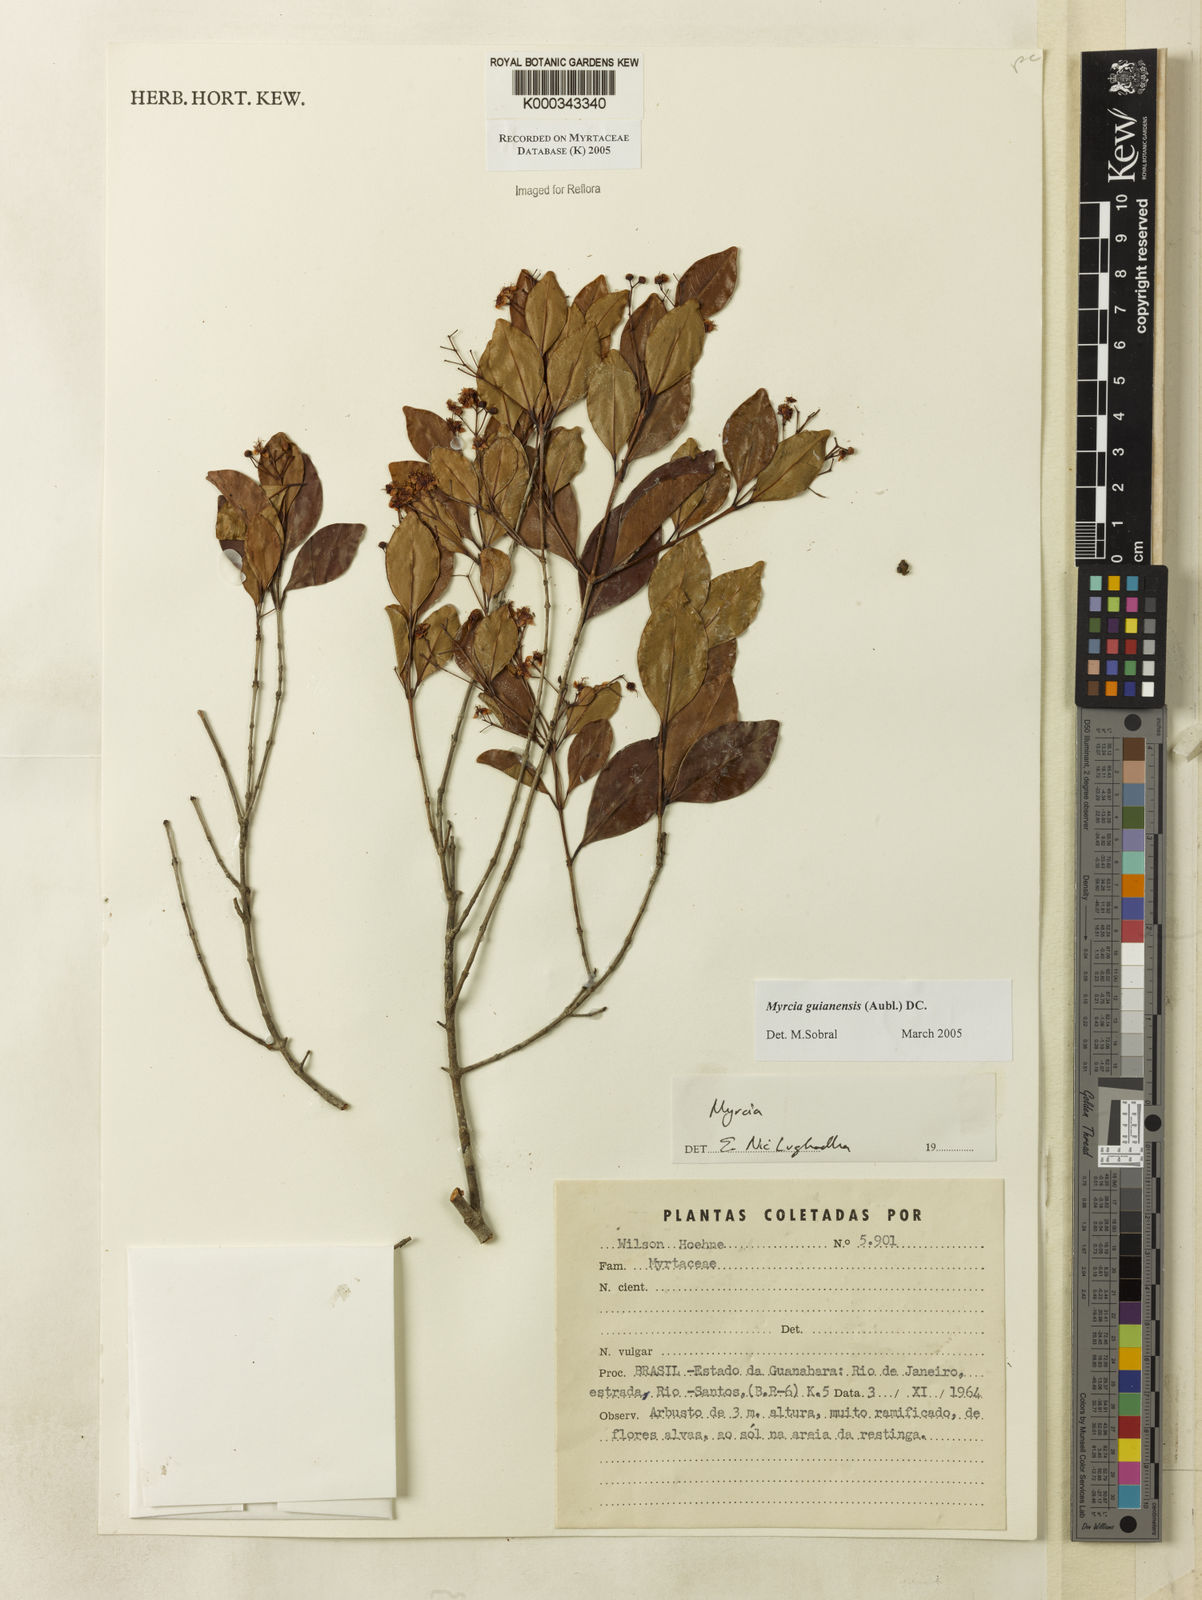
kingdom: Plantae
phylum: Tracheophyta
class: Magnoliopsida
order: Myrtales
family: Myrtaceae
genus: Myrcia
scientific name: Myrcia guianensis
